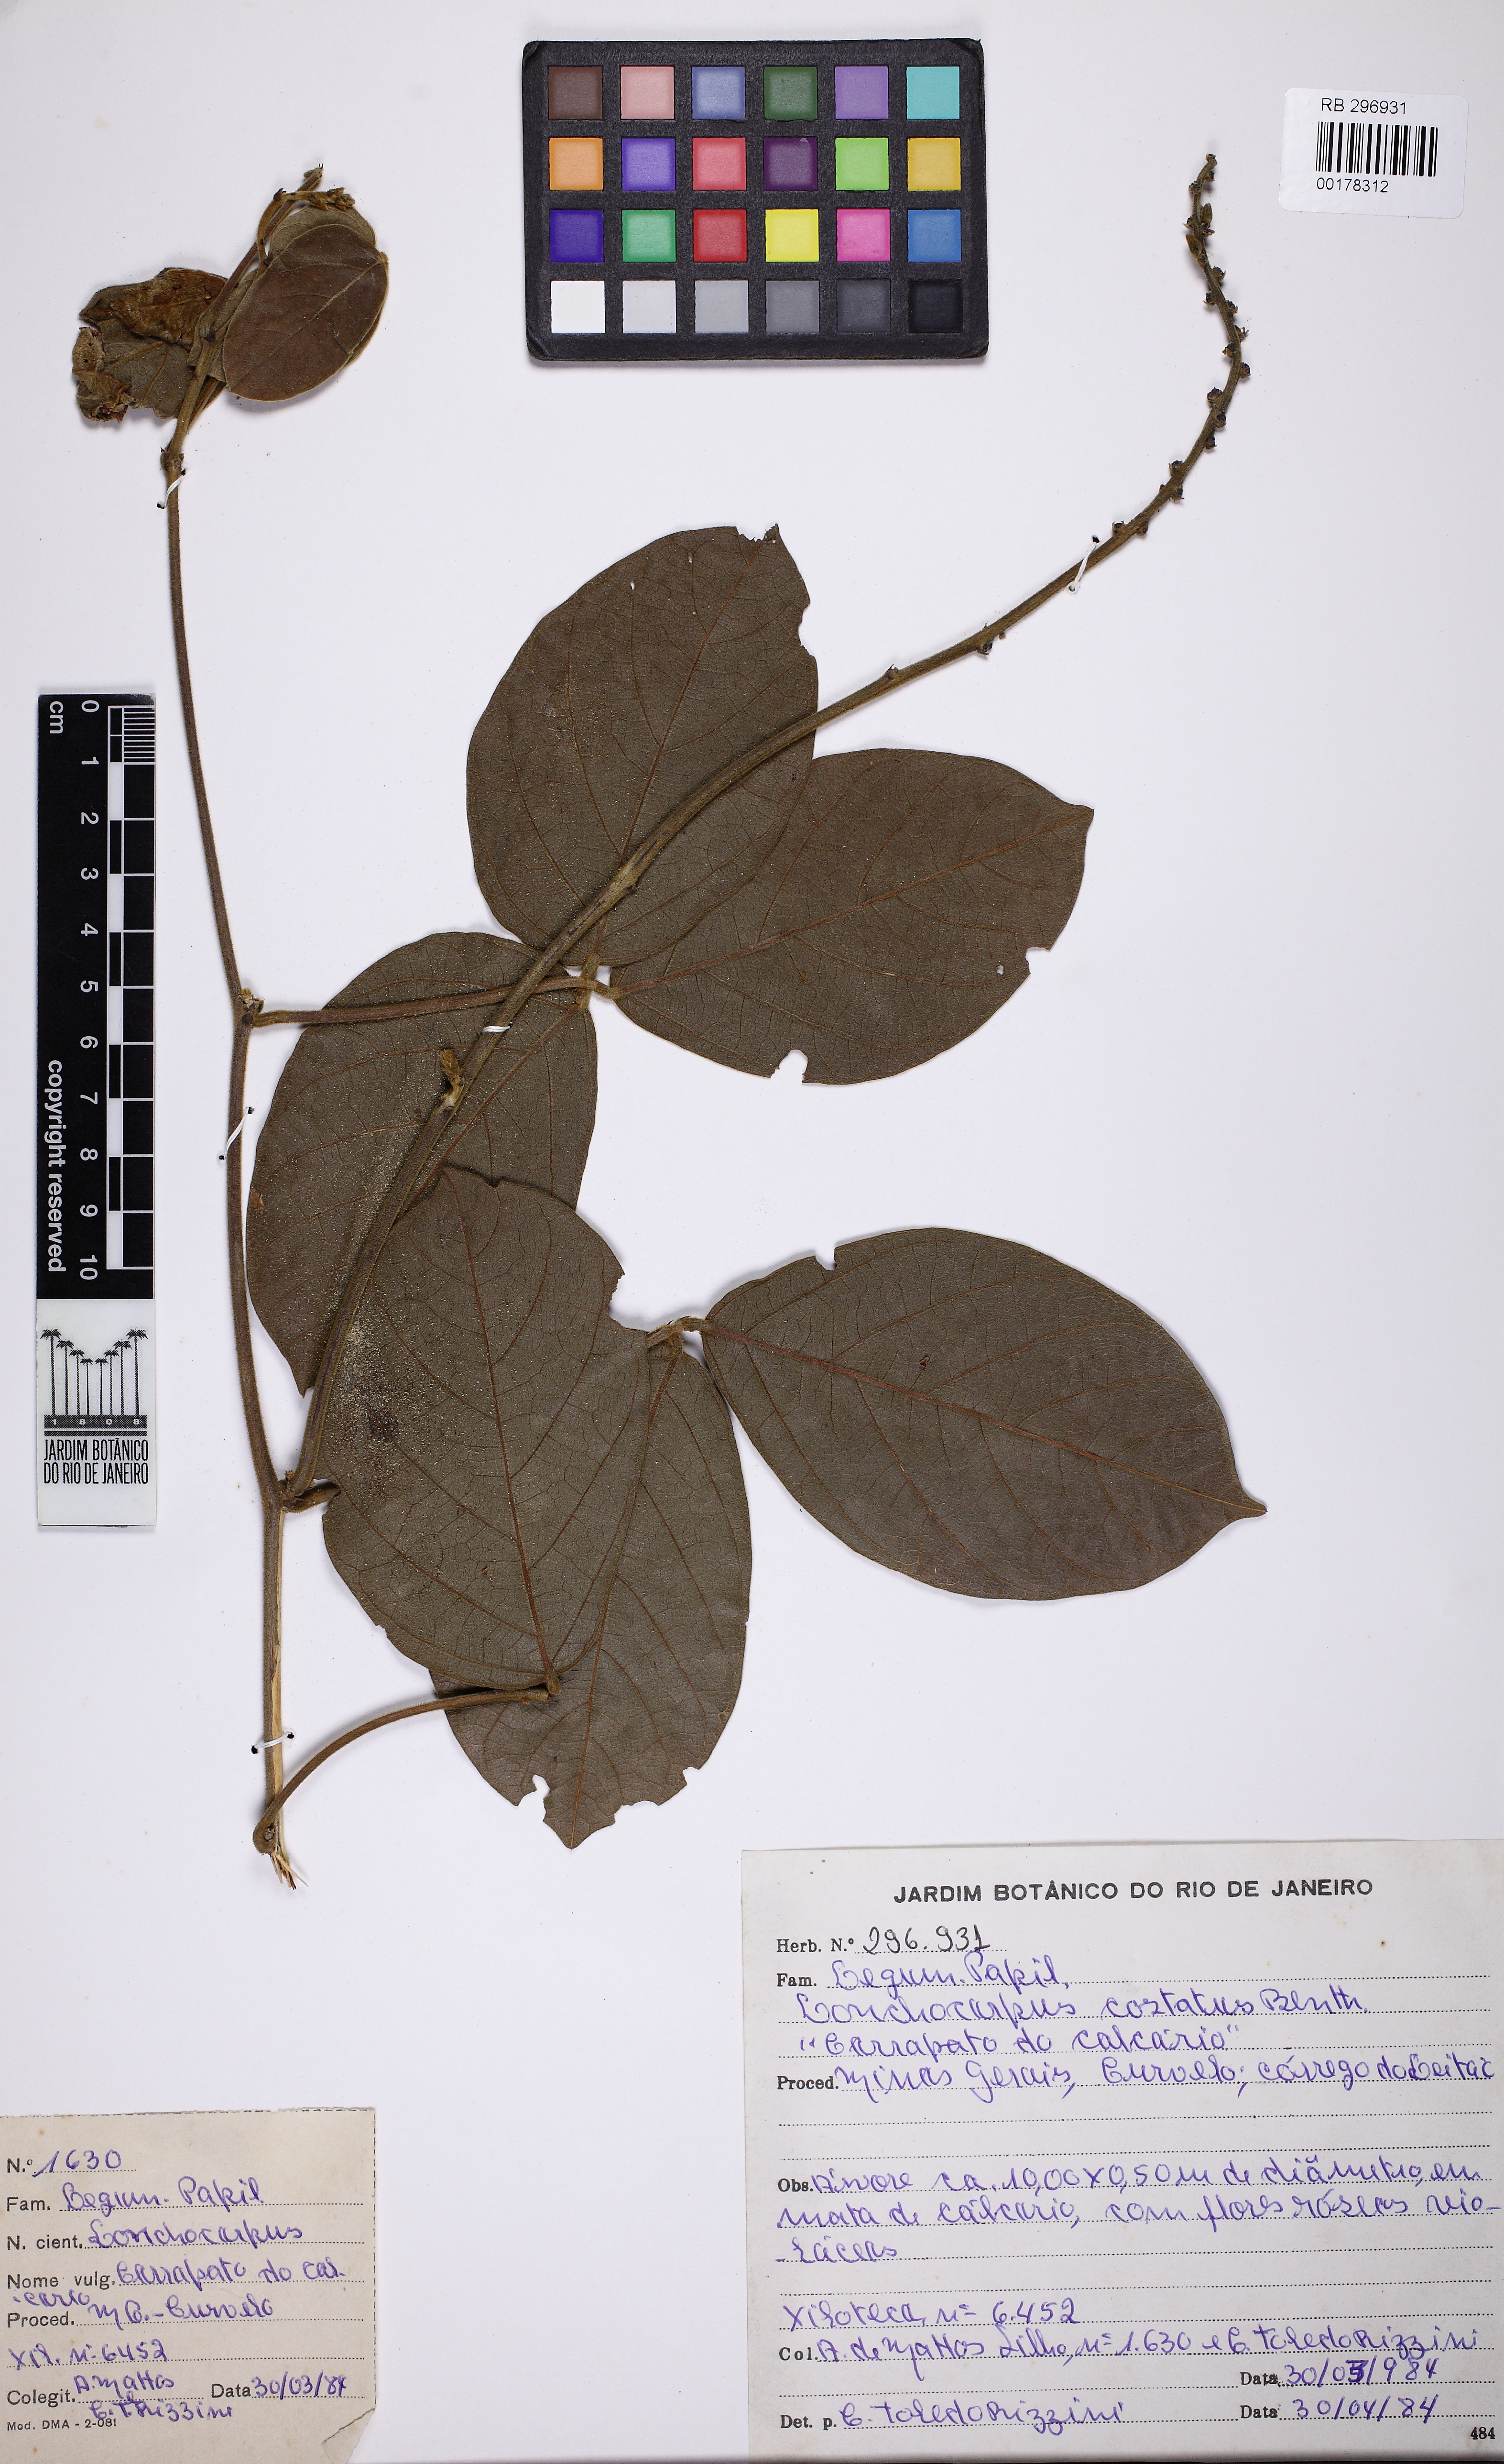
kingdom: Plantae
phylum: Tracheophyta
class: Magnoliopsida
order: Fabales
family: Fabaceae
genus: Cleobulia
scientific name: Cleobulia coccinea
